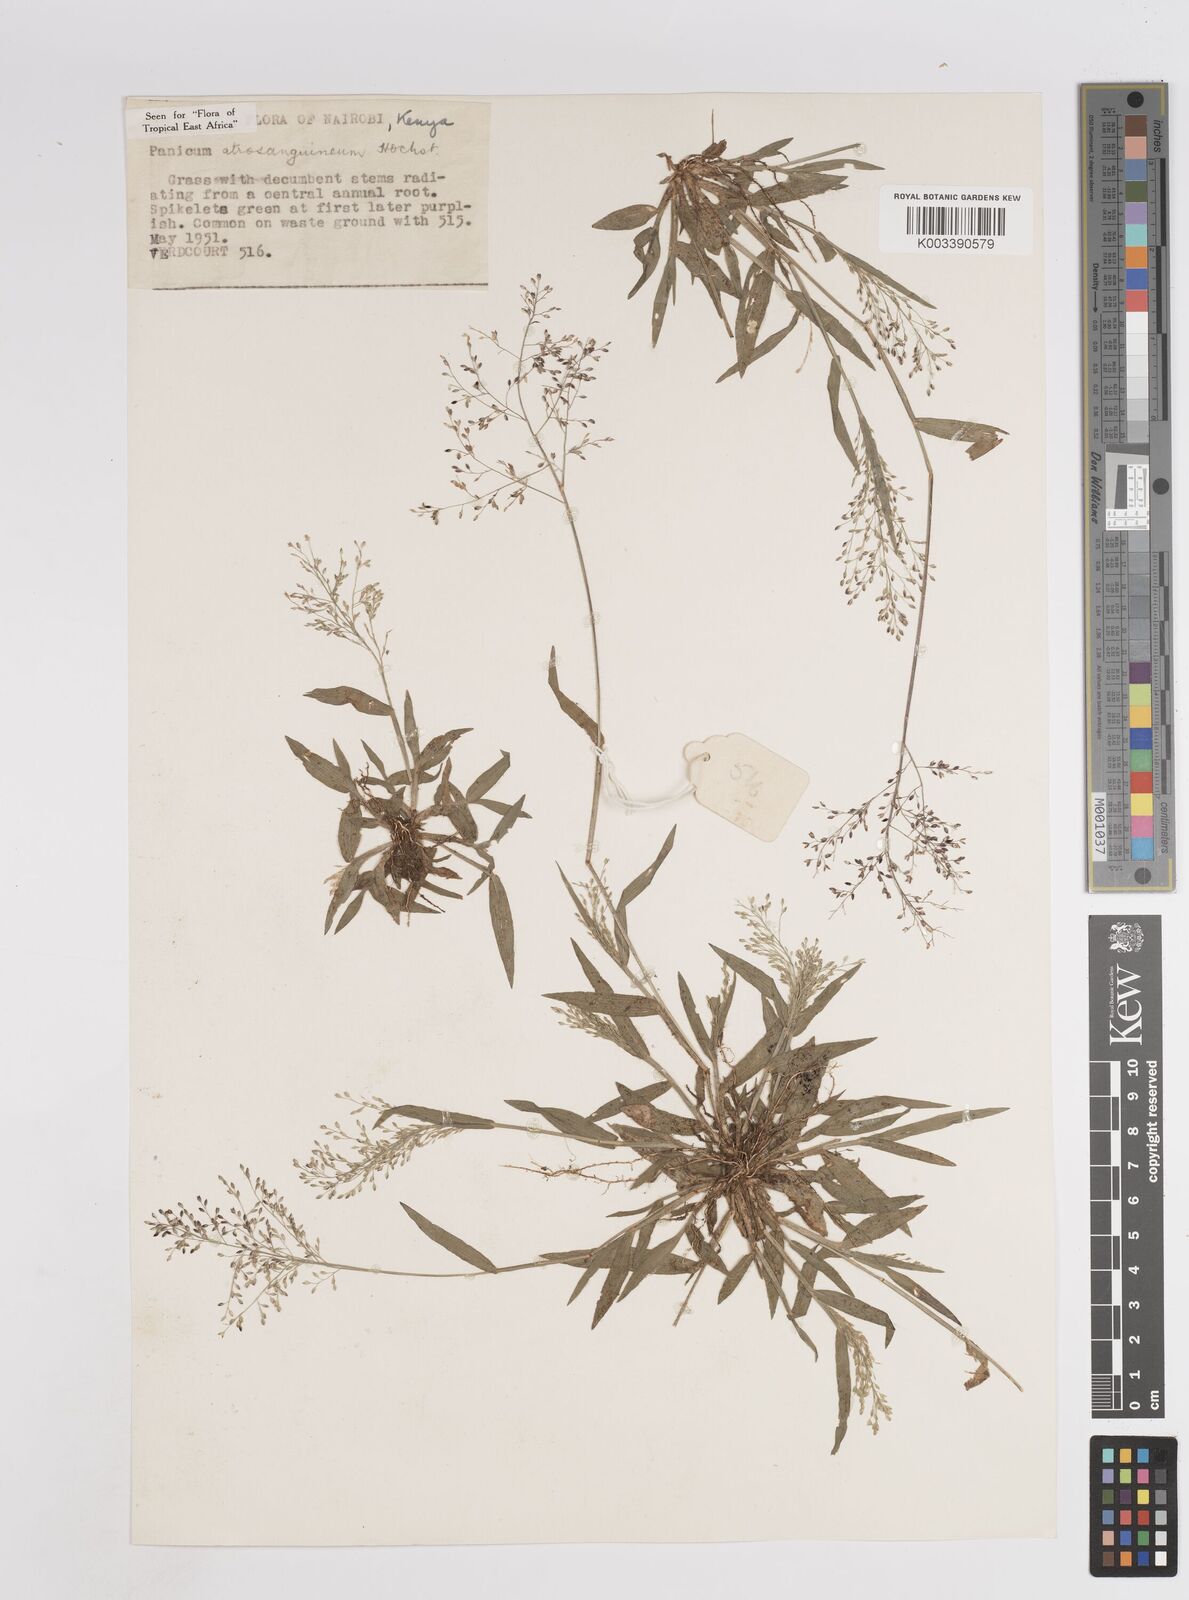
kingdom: Plantae
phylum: Tracheophyta
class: Liliopsida
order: Poales
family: Poaceae
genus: Panicum
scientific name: Panicum atrosanguineum
